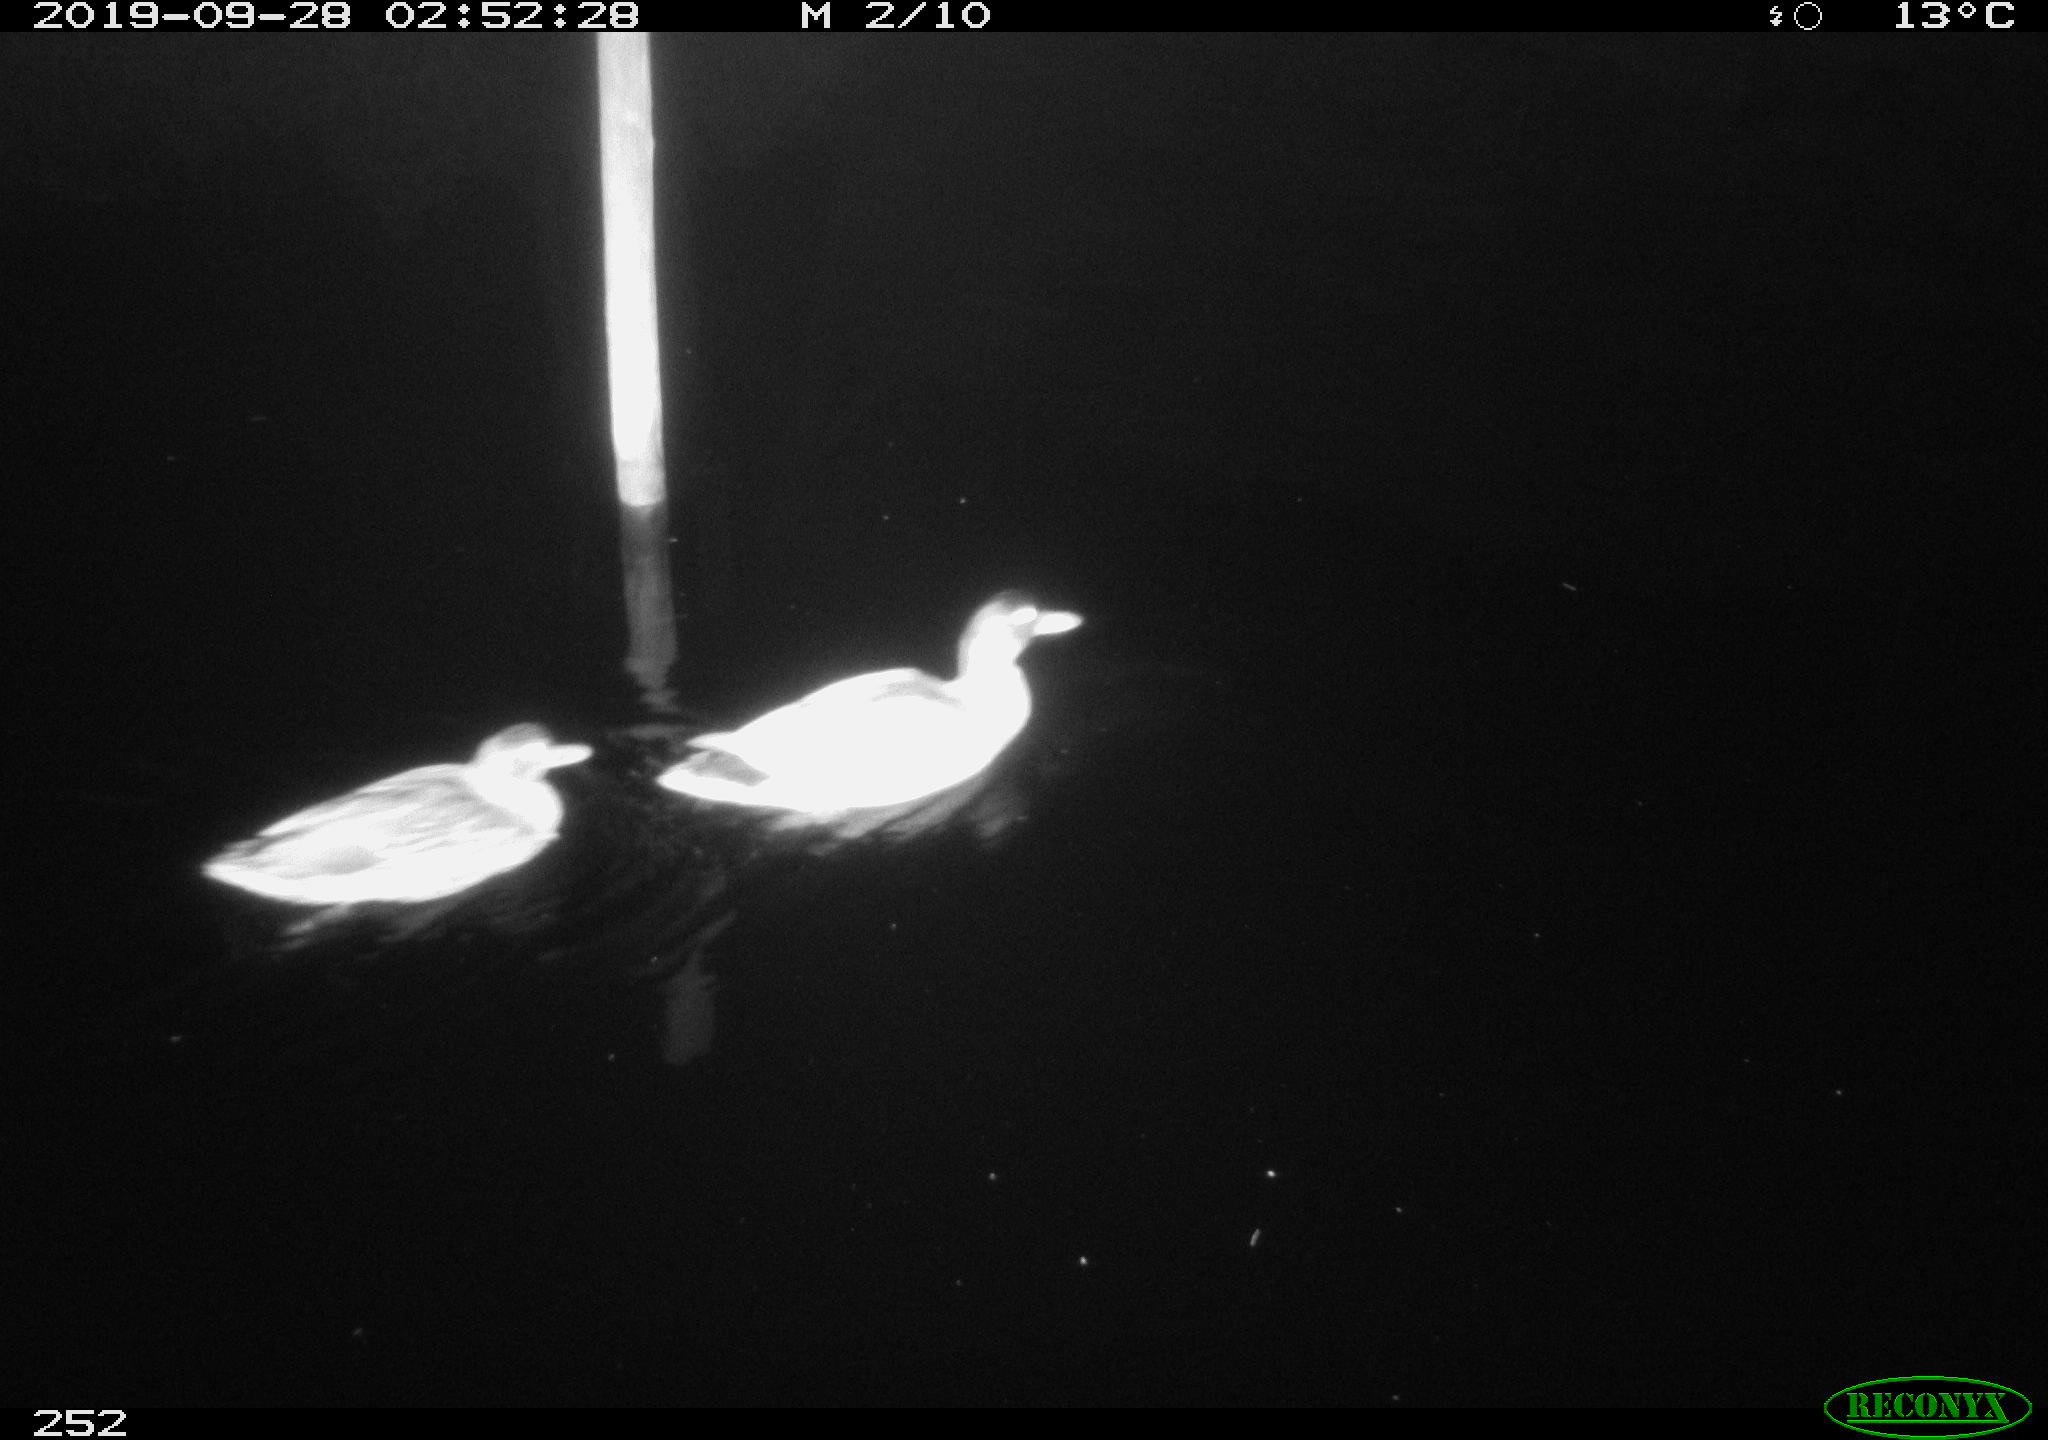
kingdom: Animalia
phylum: Chordata
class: Aves
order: Anseriformes
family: Anatidae
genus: Anas
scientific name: Anas platyrhynchos
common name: Mallard
